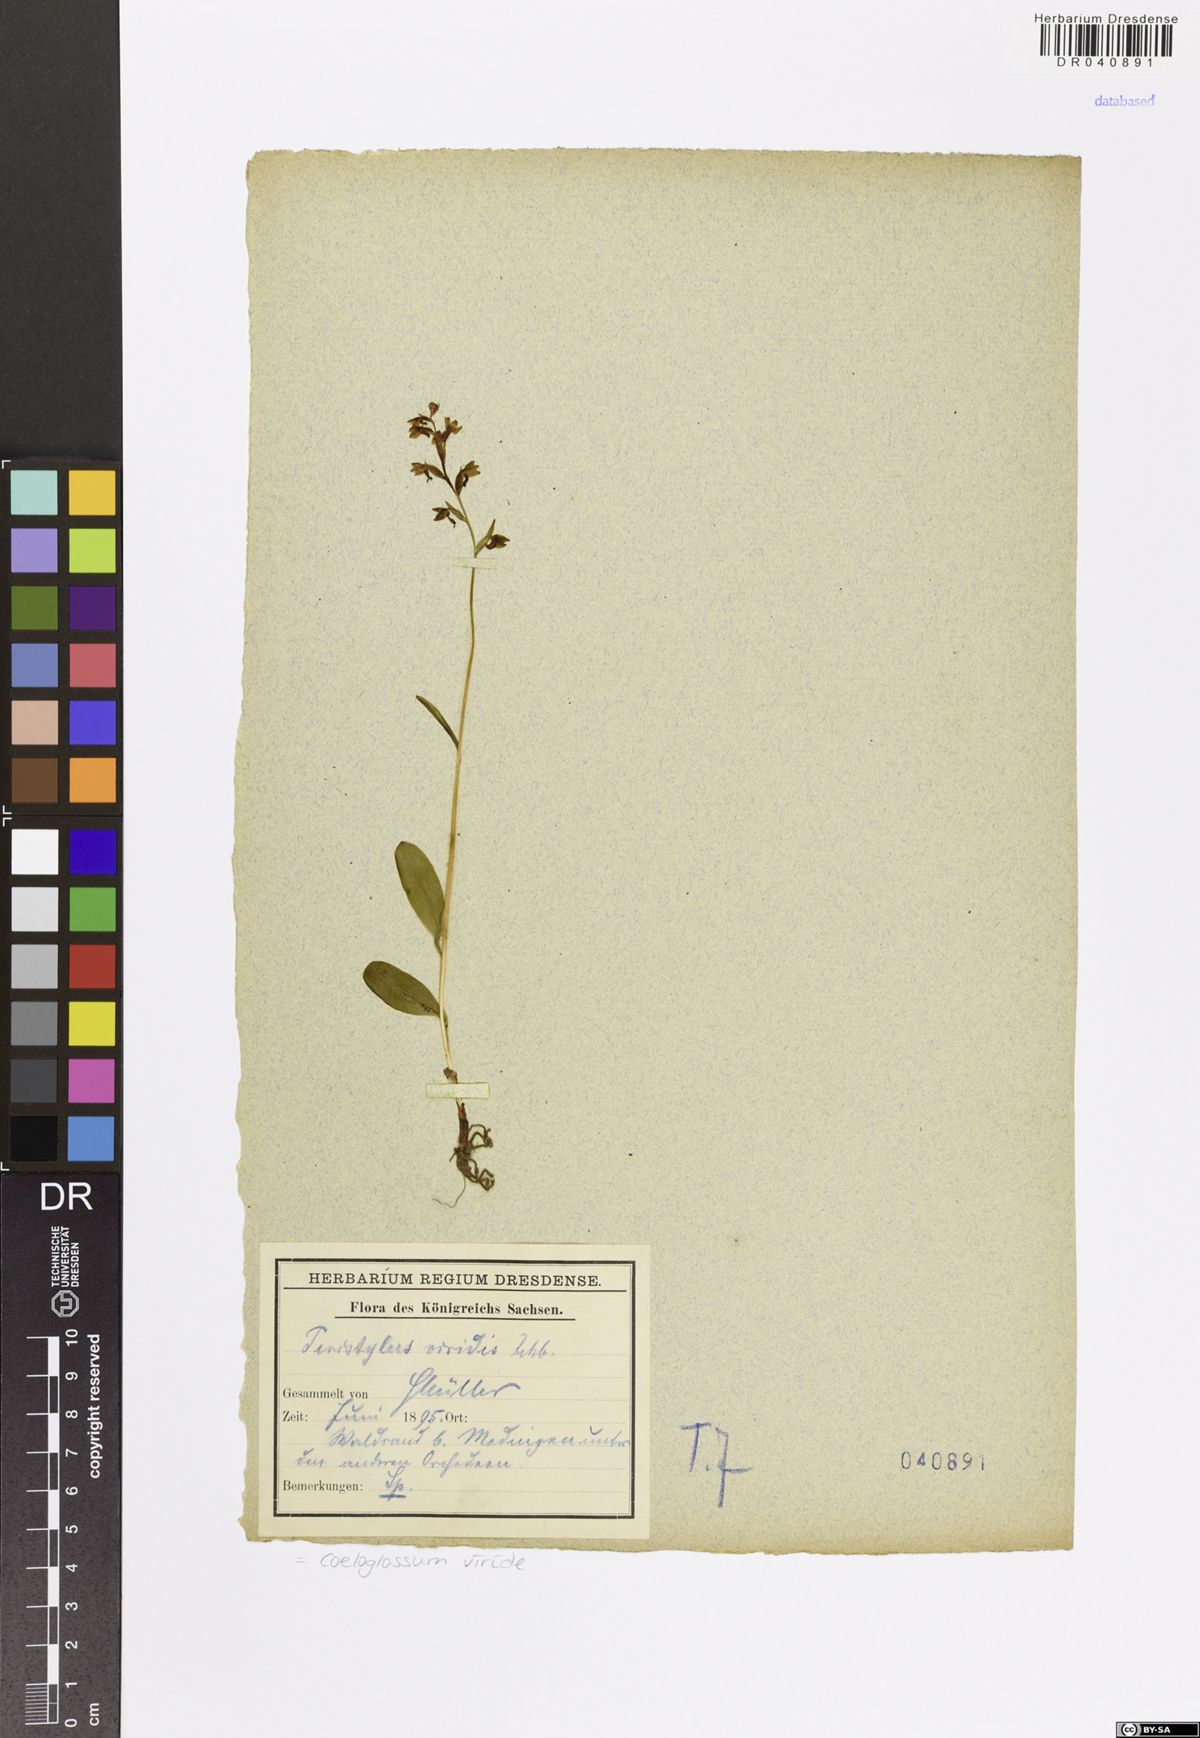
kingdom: Plantae
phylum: Tracheophyta
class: Liliopsida
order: Asparagales
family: Orchidaceae
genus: Dactylorhiza
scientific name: Dactylorhiza viridis
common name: Longbract frog orchid
